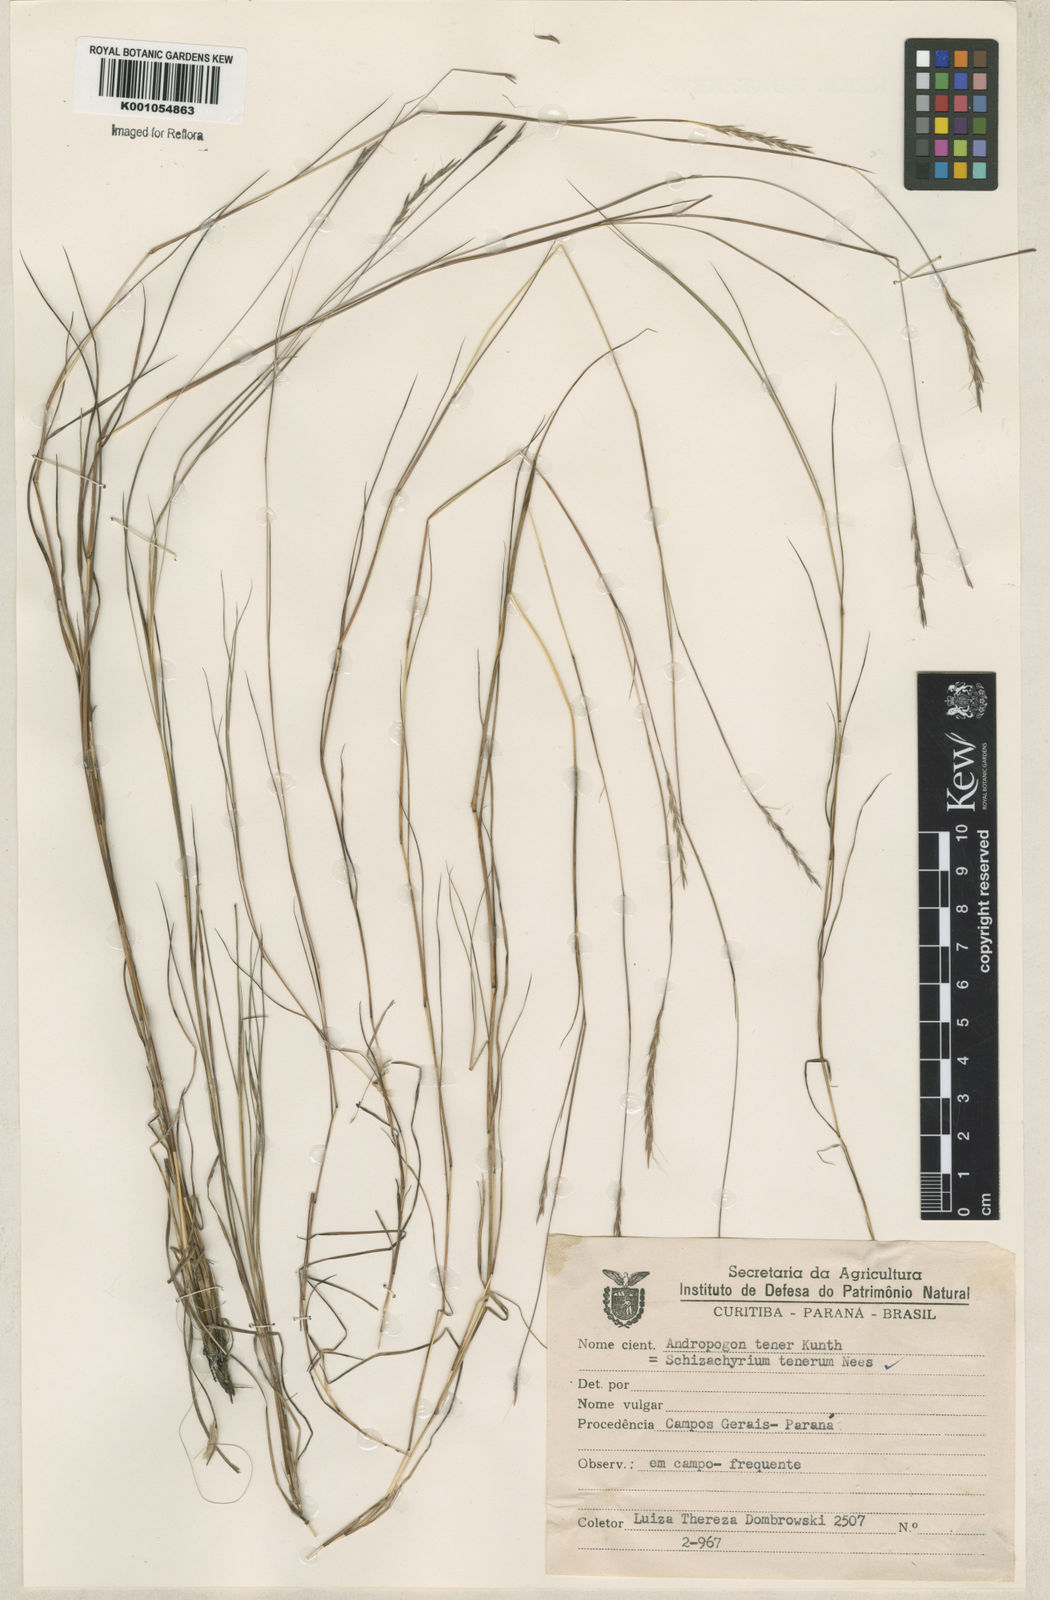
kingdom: Plantae
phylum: Tracheophyta
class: Liliopsida
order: Poales
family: Poaceae
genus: Andropogon
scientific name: Andropogon tener
